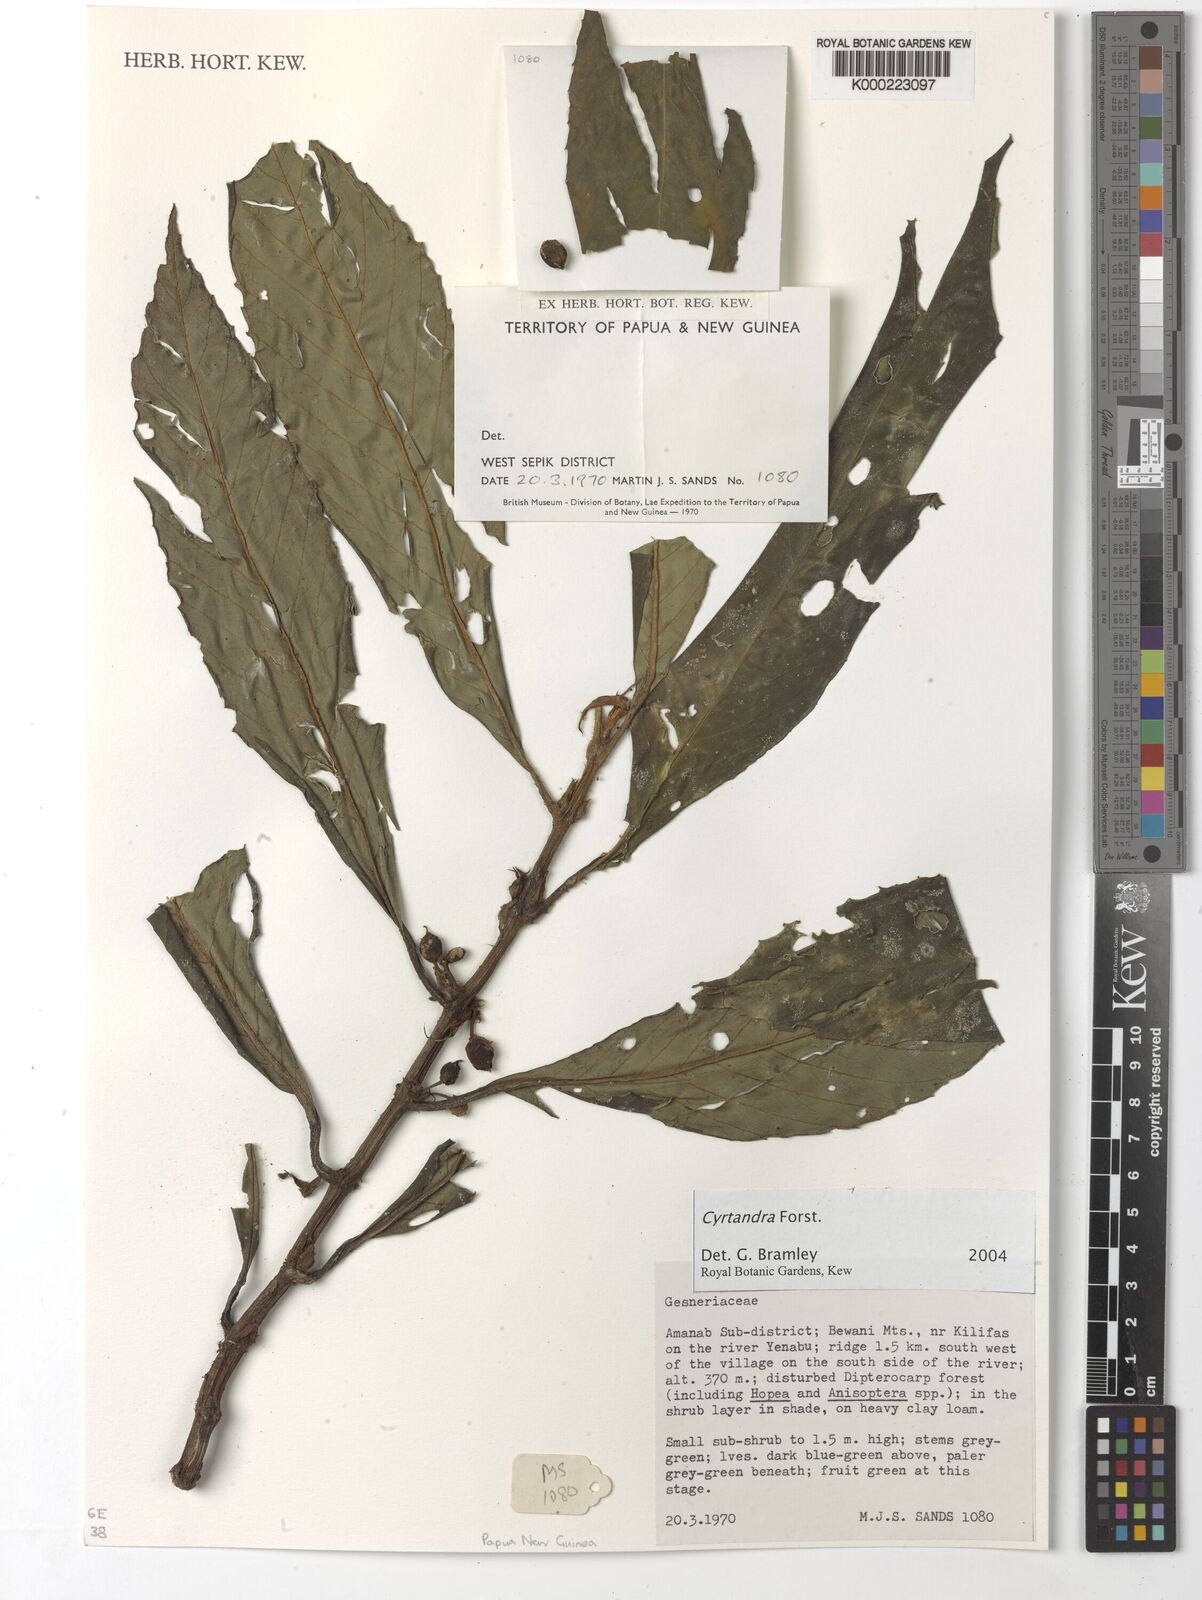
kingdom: Plantae
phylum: Tracheophyta
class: Magnoliopsida
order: Lamiales
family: Gesneriaceae
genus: Cyrtandra
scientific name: Cyrtandra
